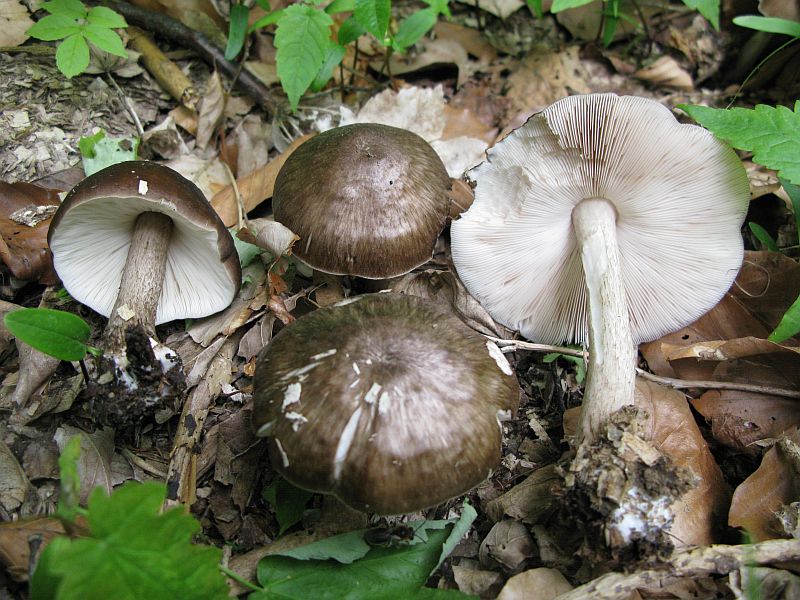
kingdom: Fungi
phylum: Basidiomycota
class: Agaricomycetes
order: Agaricales
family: Pluteaceae
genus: Pluteus
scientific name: Pluteus cervinus
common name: sodfarvet skærmhat
